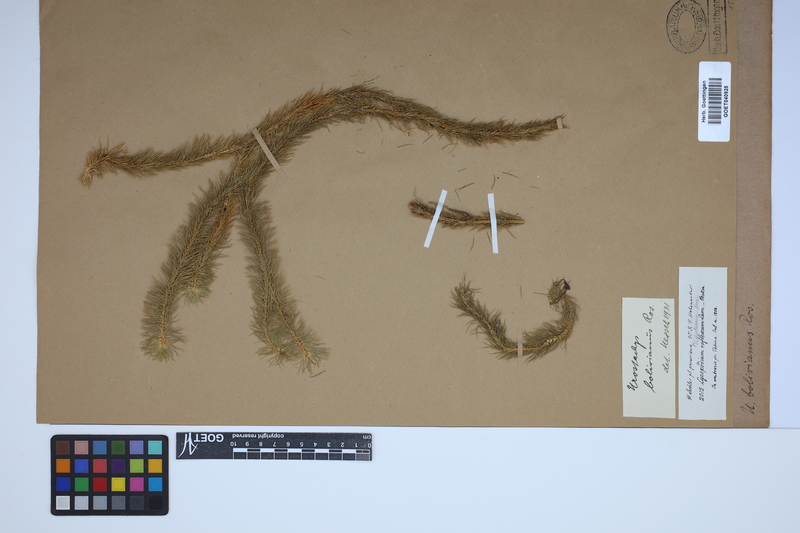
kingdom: Plantae
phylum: Tracheophyta
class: Lycopodiopsida
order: Lycopodiales
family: Lycopodiaceae
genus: Phlegmariurus
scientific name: Phlegmariurus
